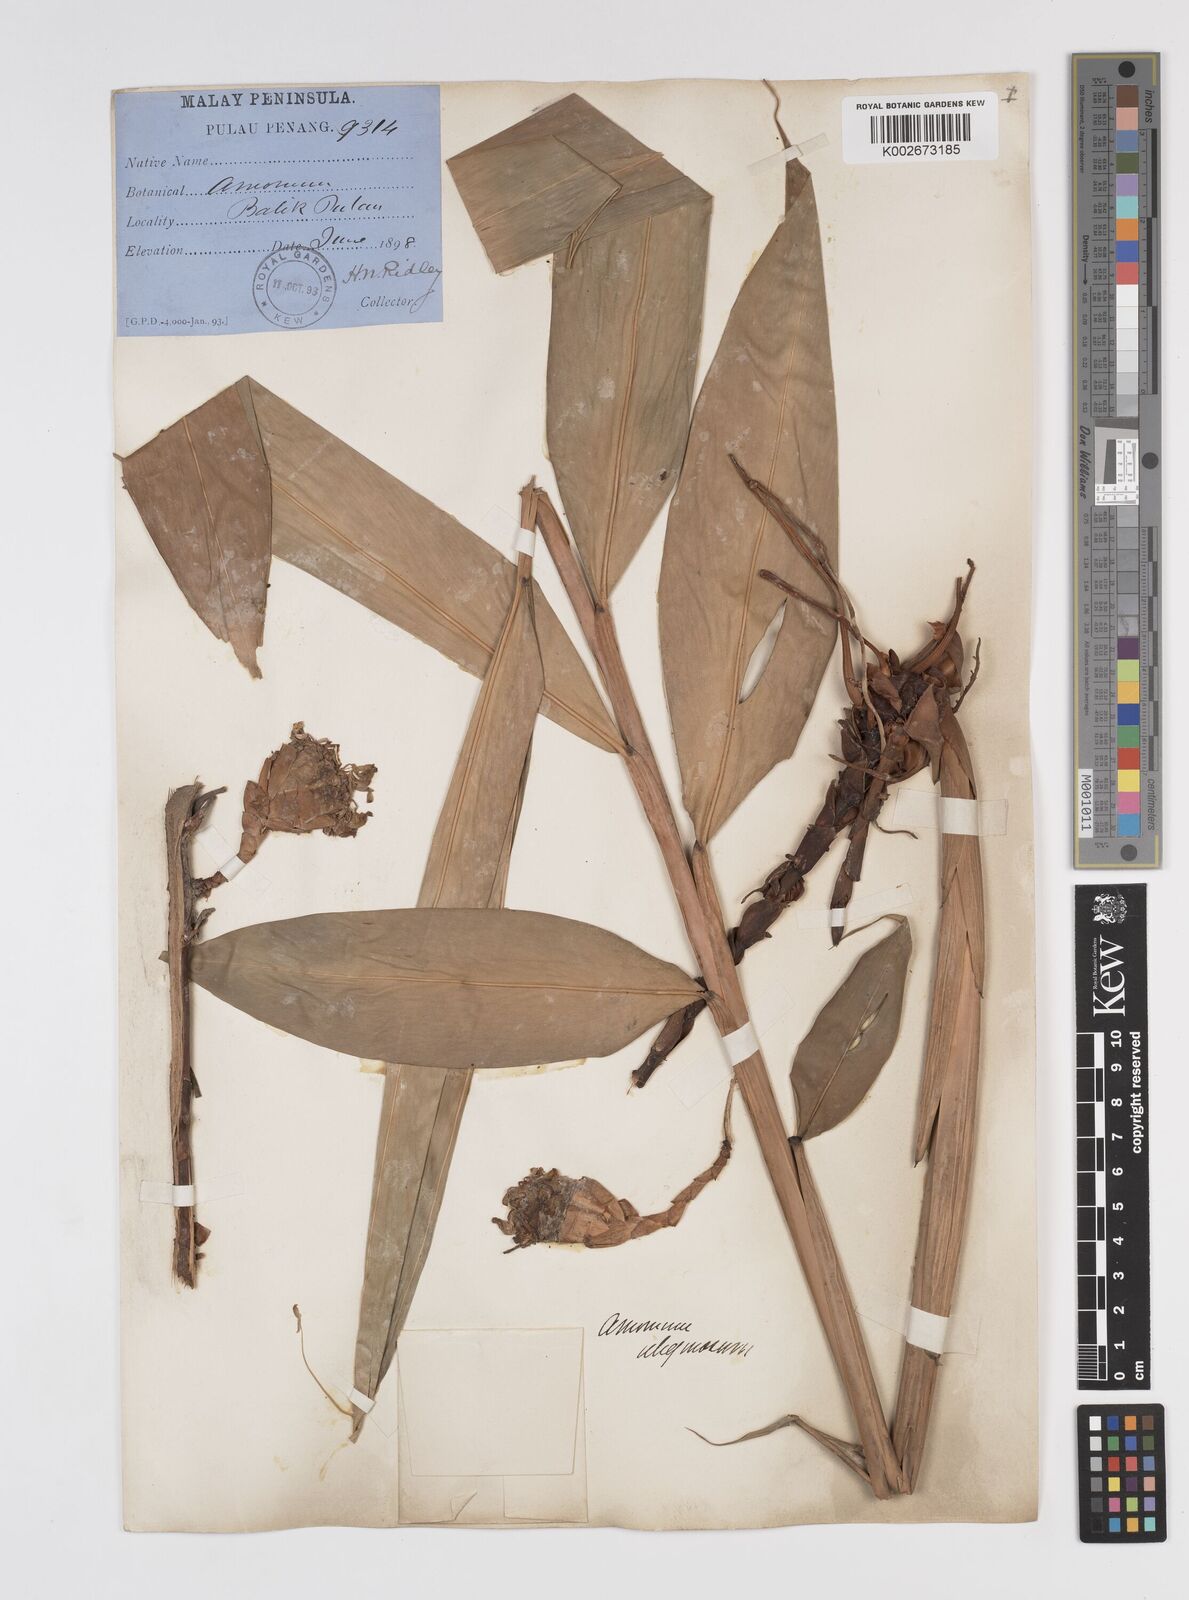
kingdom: Plantae
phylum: Tracheophyta
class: Liliopsida
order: Zingiberales
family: Zingiberaceae
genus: Wurfbainia
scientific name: Wurfbainia uliginosa
